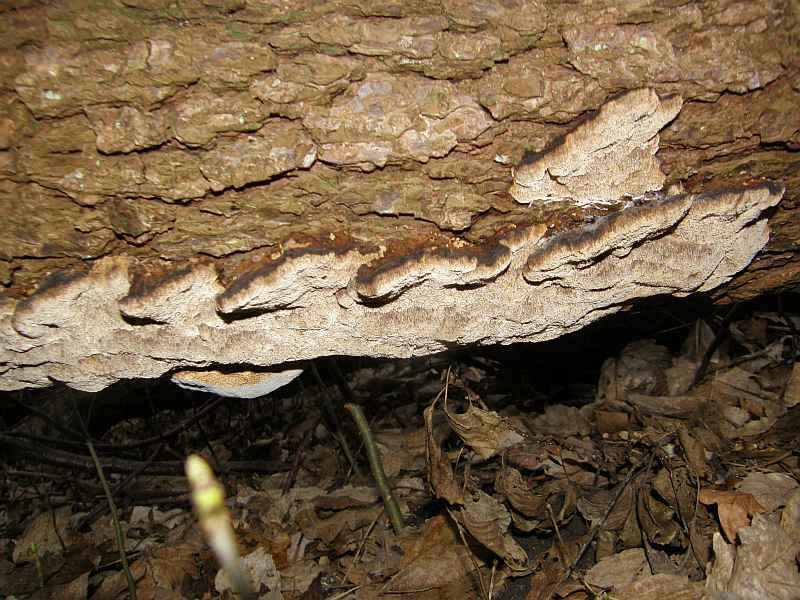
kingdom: Fungi
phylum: Basidiomycota
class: Agaricomycetes
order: Hymenochaetales
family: Hymenochaetaceae
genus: Xanthoporia
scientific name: Xanthoporia radiata
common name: elle-spejlporesvamp
